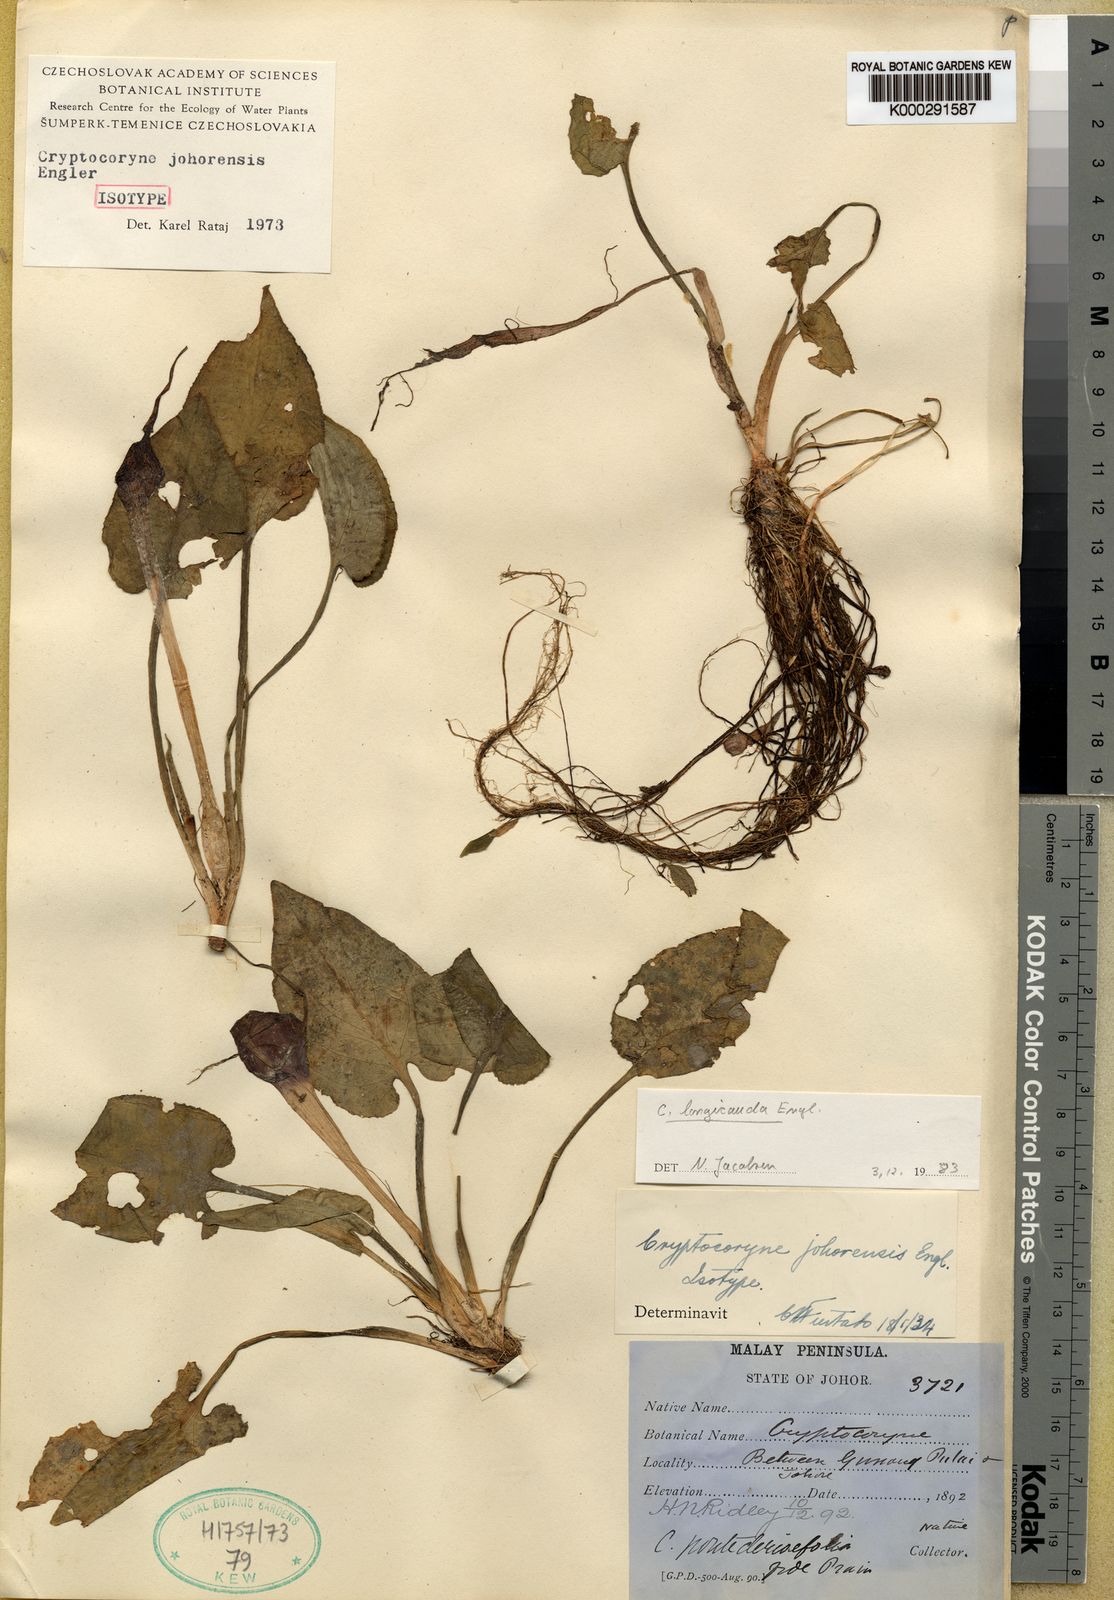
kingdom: Plantae
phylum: Tracheophyta
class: Liliopsida
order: Alismatales
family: Araceae
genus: Cryptocoryne
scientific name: Cryptocoryne longicauda
